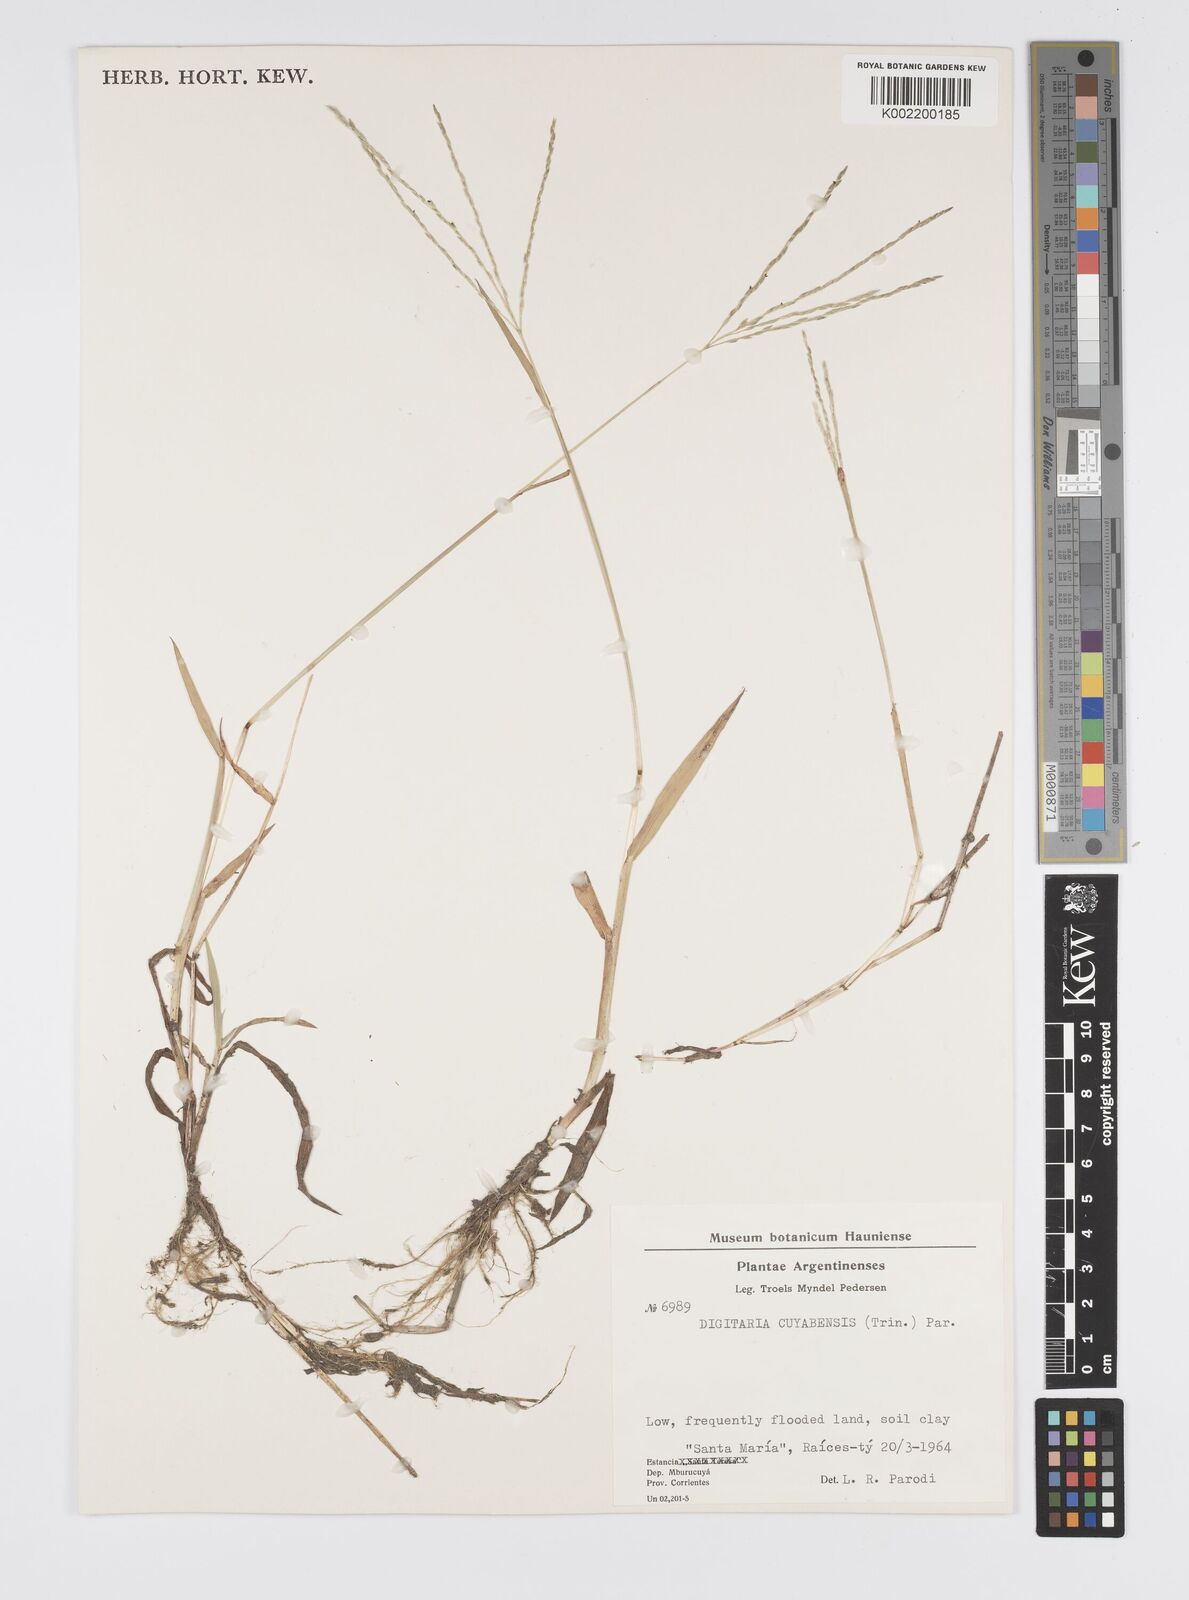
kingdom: Plantae
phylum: Tracheophyta
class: Liliopsida
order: Poales
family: Poaceae
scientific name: Poaceae
